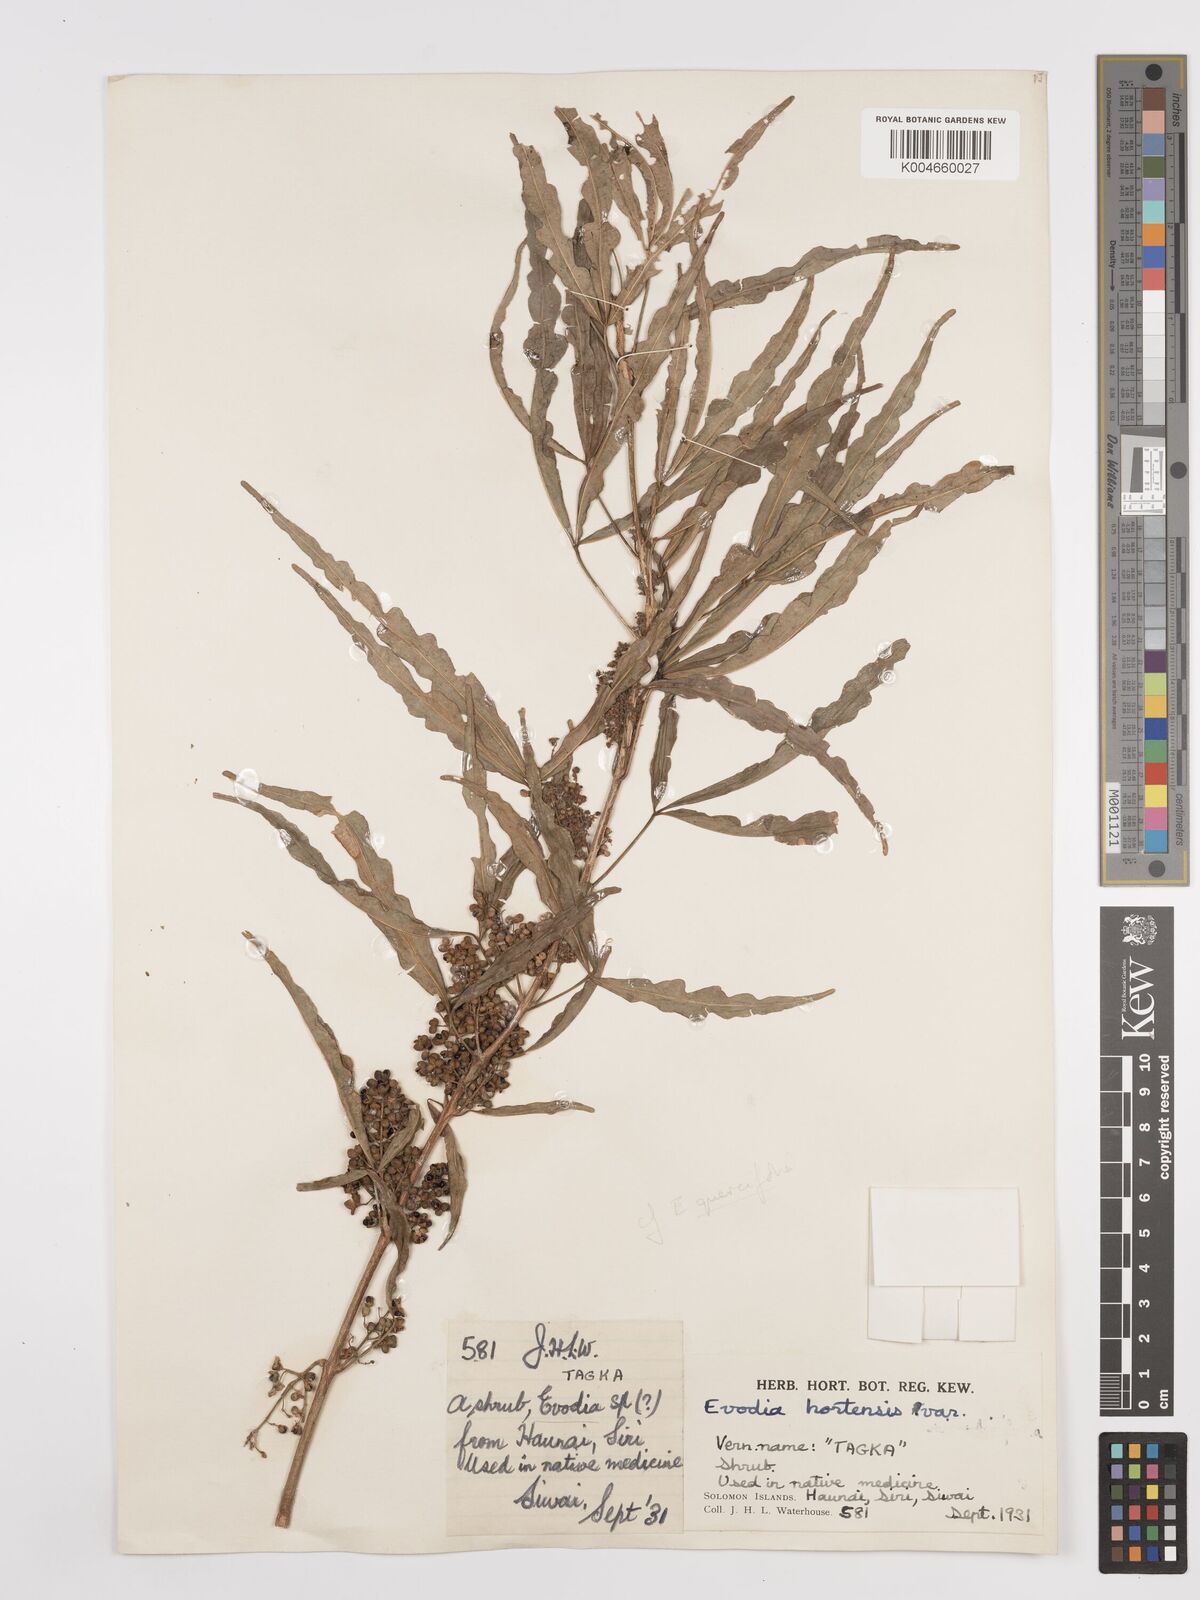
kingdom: Plantae
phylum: Tracheophyta
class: Magnoliopsida
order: Sapindales
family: Rutaceae
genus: Euodia
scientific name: Euodia hortensis
